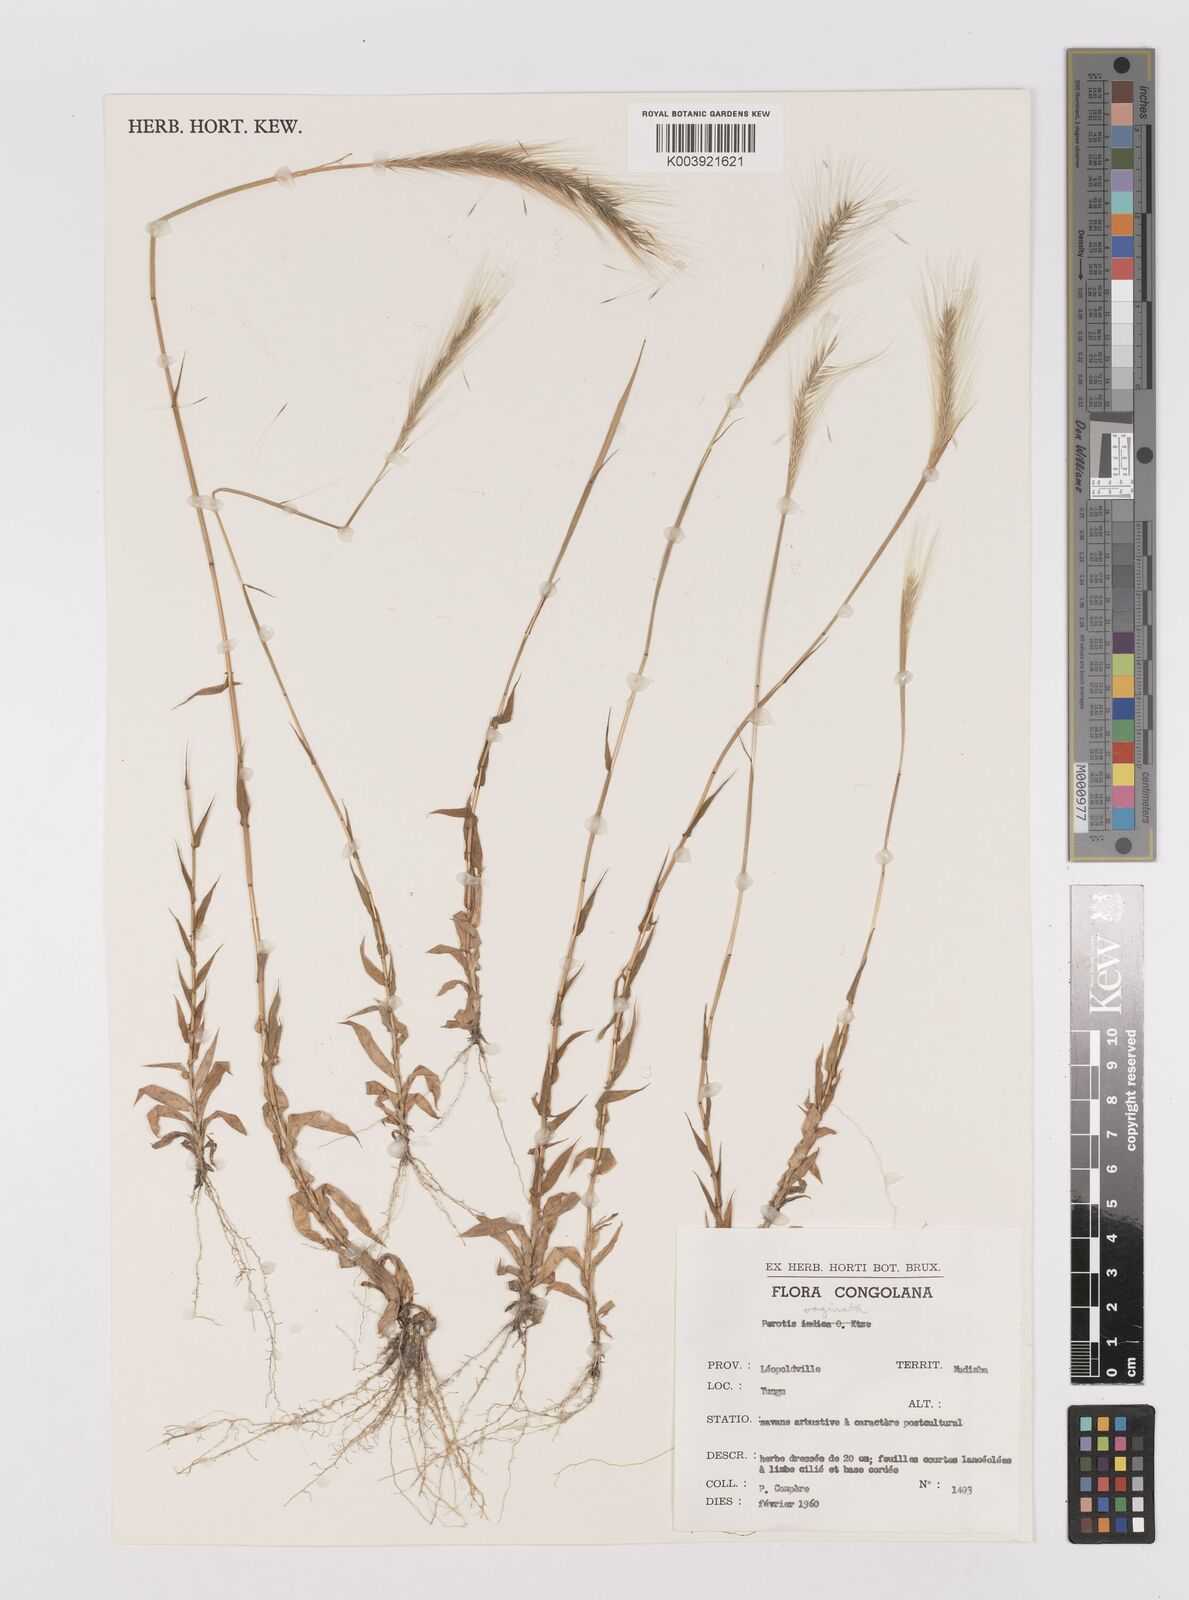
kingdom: Plantae
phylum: Tracheophyta
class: Liliopsida
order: Poales
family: Poaceae
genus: Perotis
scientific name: Perotis vaginata
